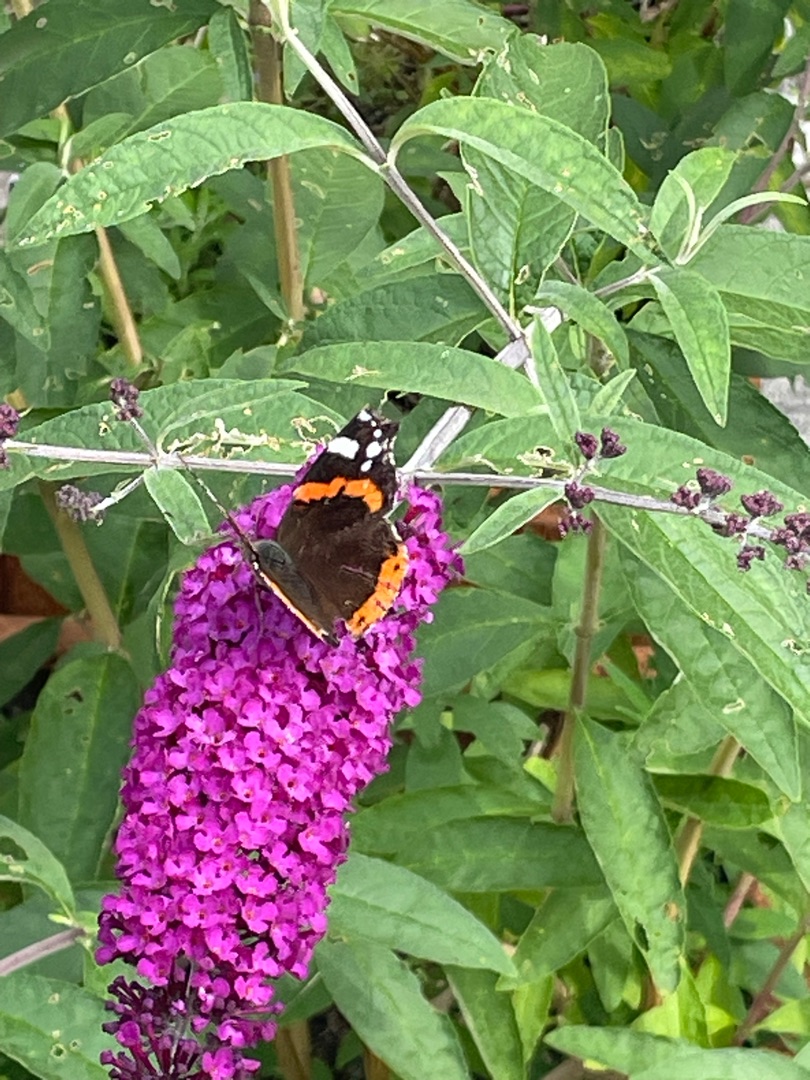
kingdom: Animalia
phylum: Arthropoda
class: Insecta
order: Lepidoptera
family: Nymphalidae
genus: Vanessa
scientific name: Vanessa atalanta
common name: Admiral
